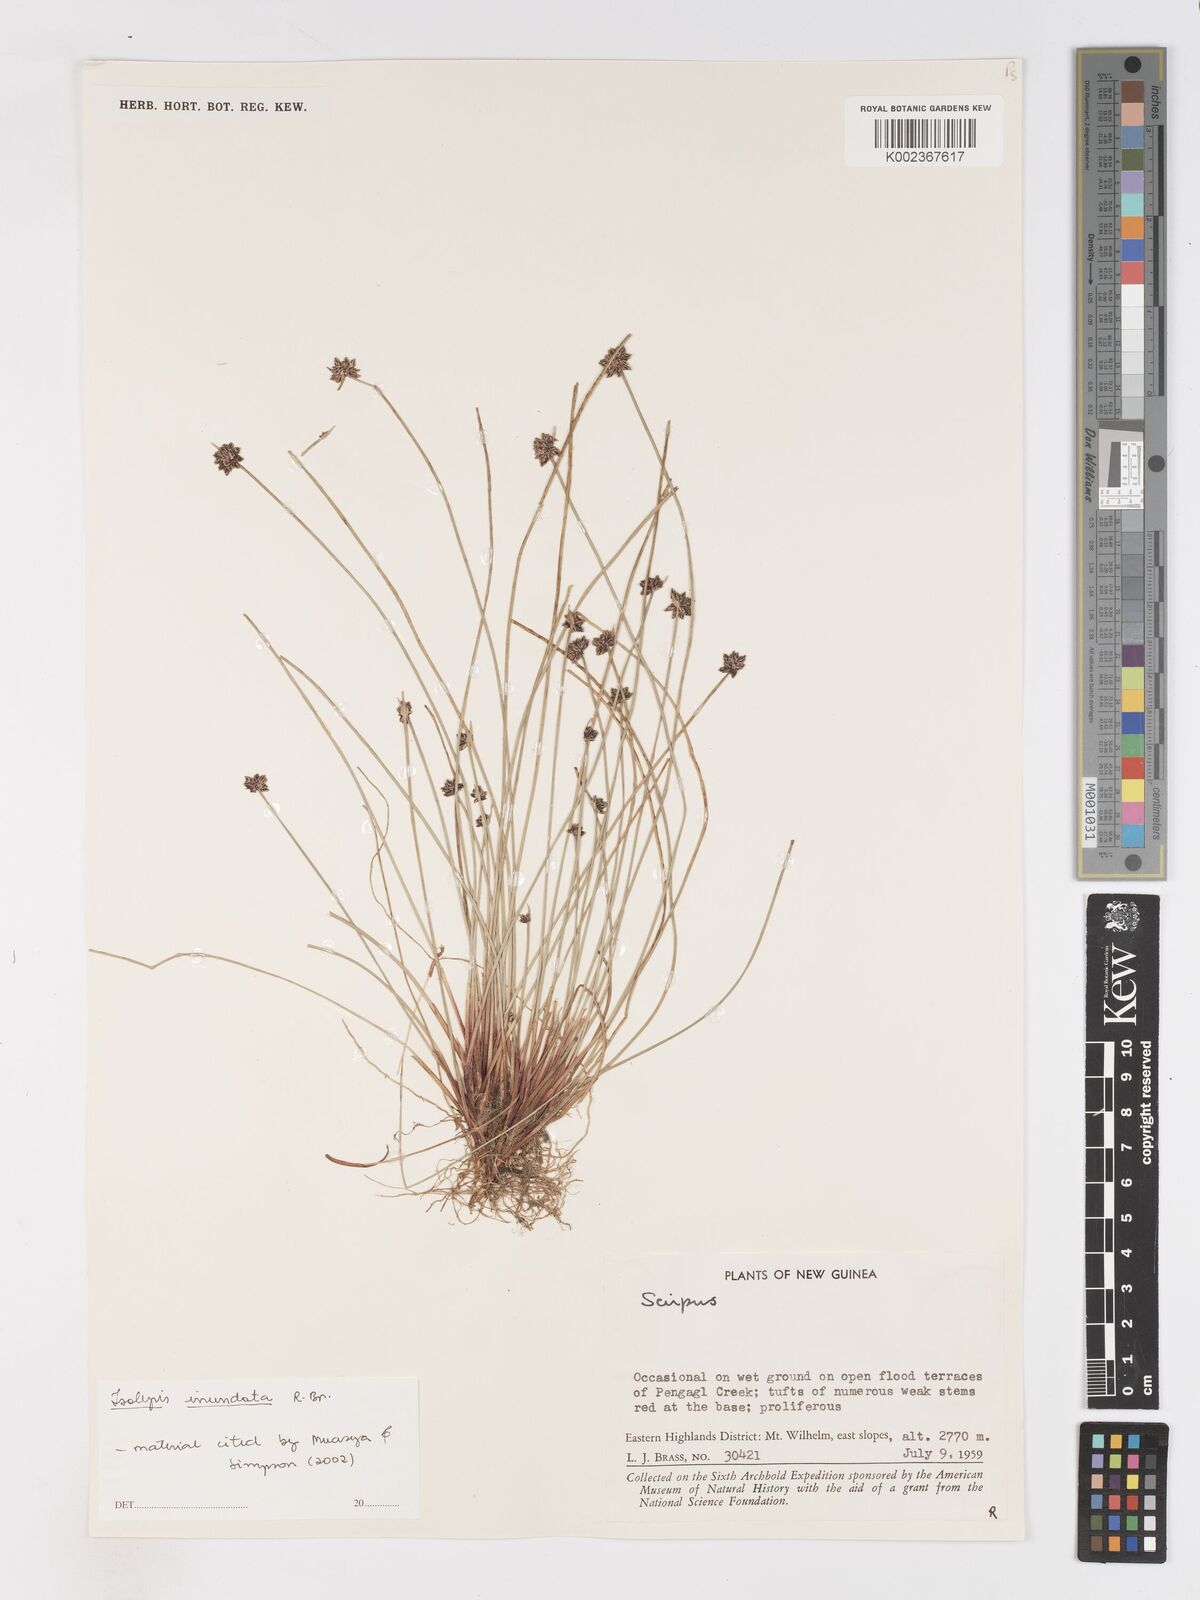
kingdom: Plantae
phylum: Tracheophyta
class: Liliopsida
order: Poales
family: Cyperaceae
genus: Isolepis
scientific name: Isolepis inundata
